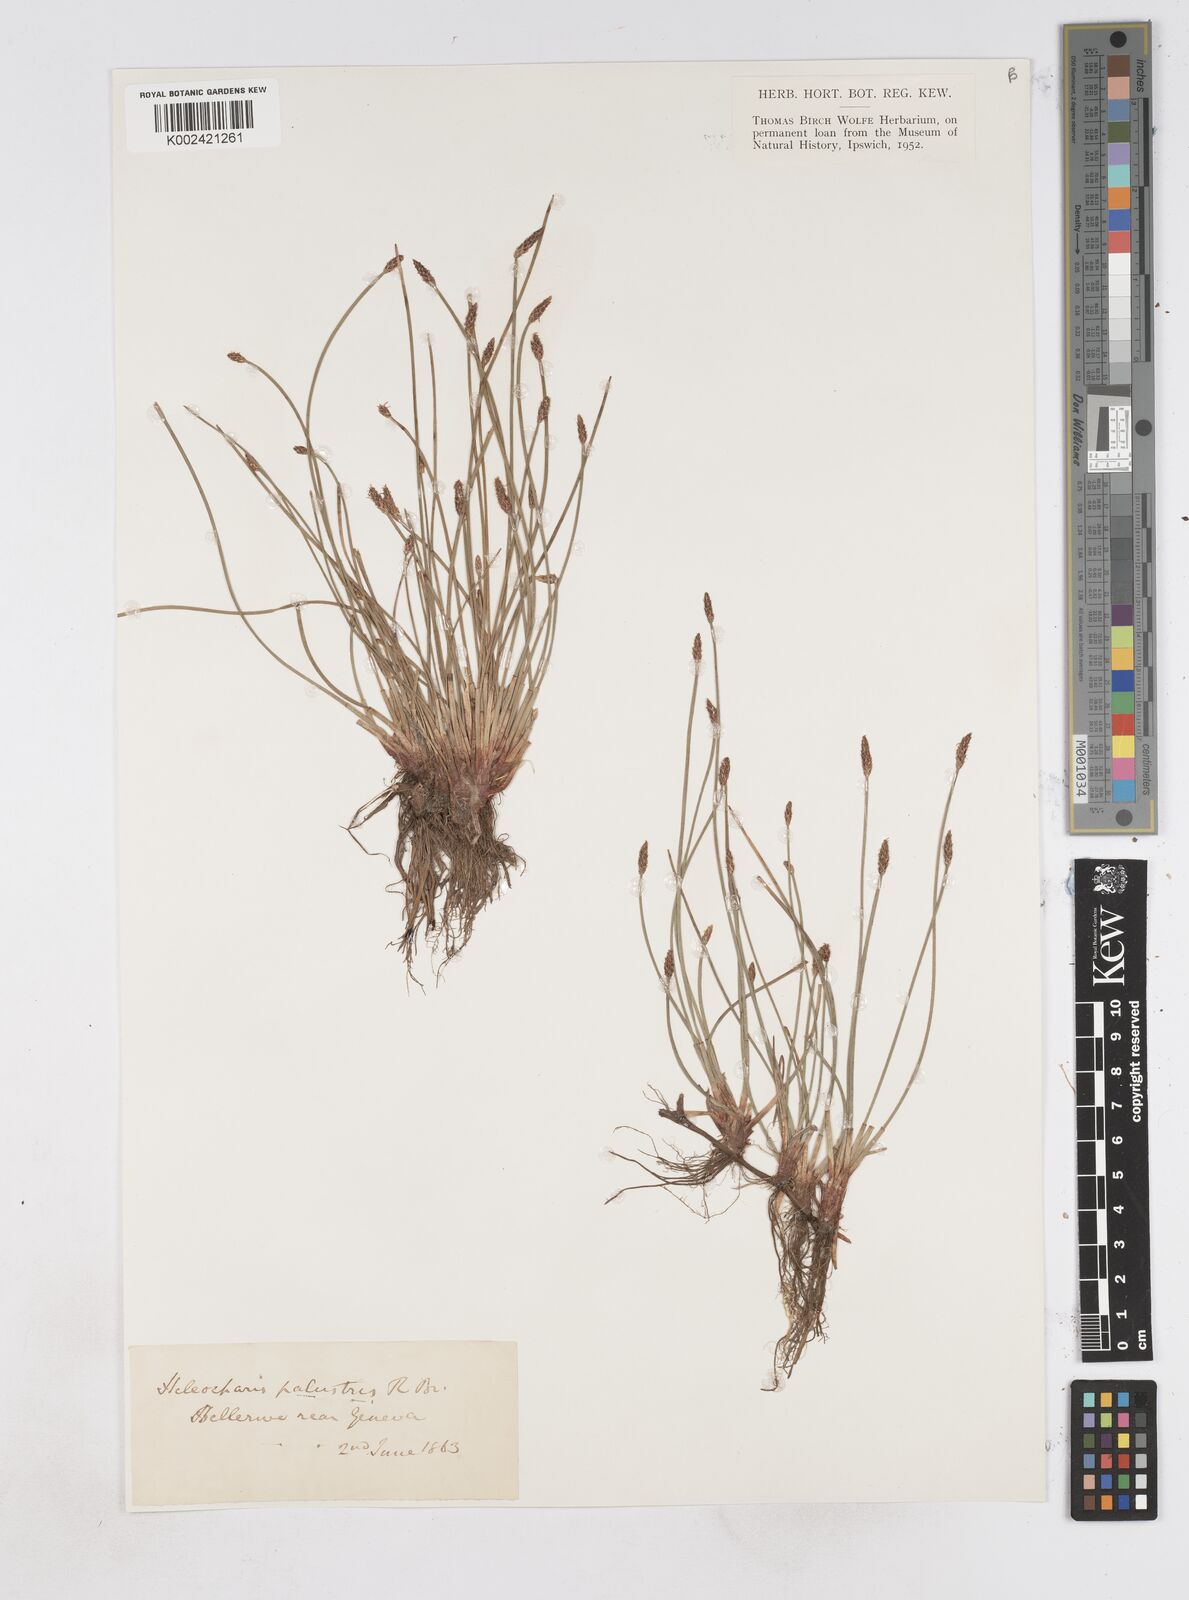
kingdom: Plantae
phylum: Tracheophyta
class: Liliopsida
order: Poales
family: Cyperaceae
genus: Eleocharis
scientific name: Eleocharis palustris
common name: Common spike-rush
